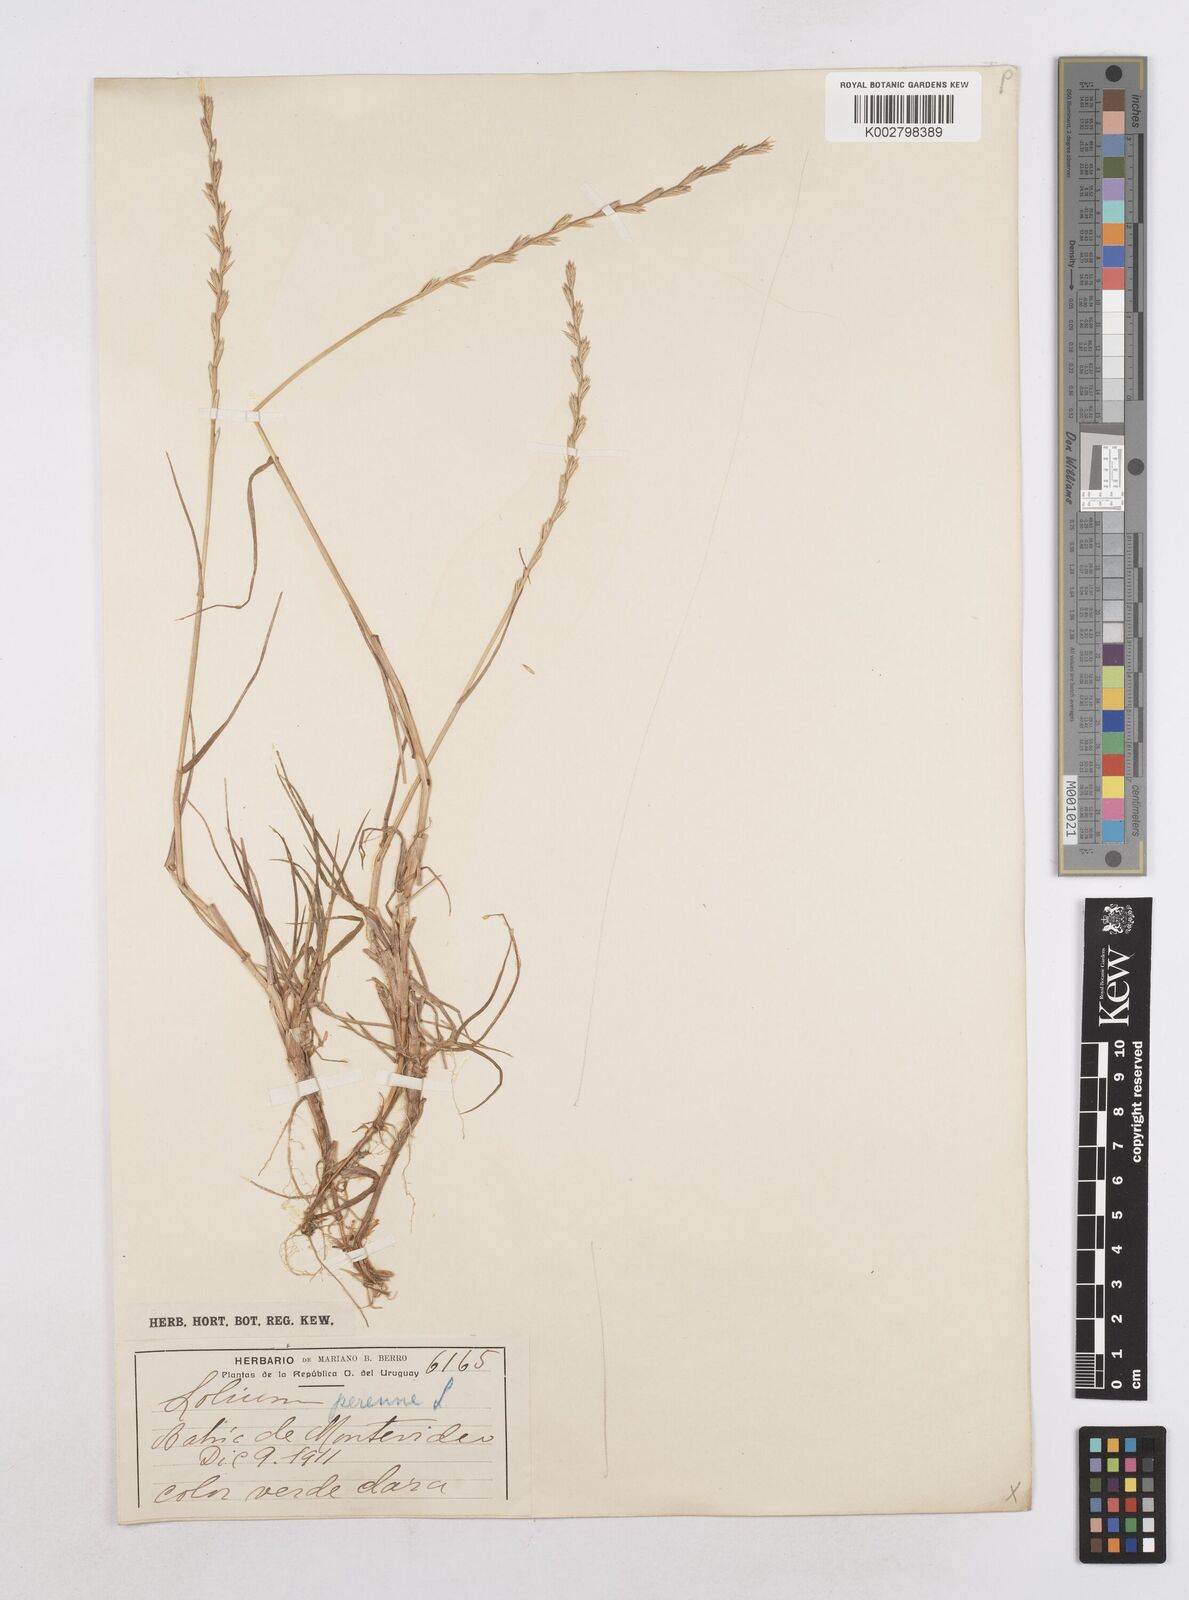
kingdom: Plantae
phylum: Tracheophyta
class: Liliopsida
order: Poales
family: Poaceae
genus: Lolium
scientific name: Lolium perenne
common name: Perennial ryegrass
